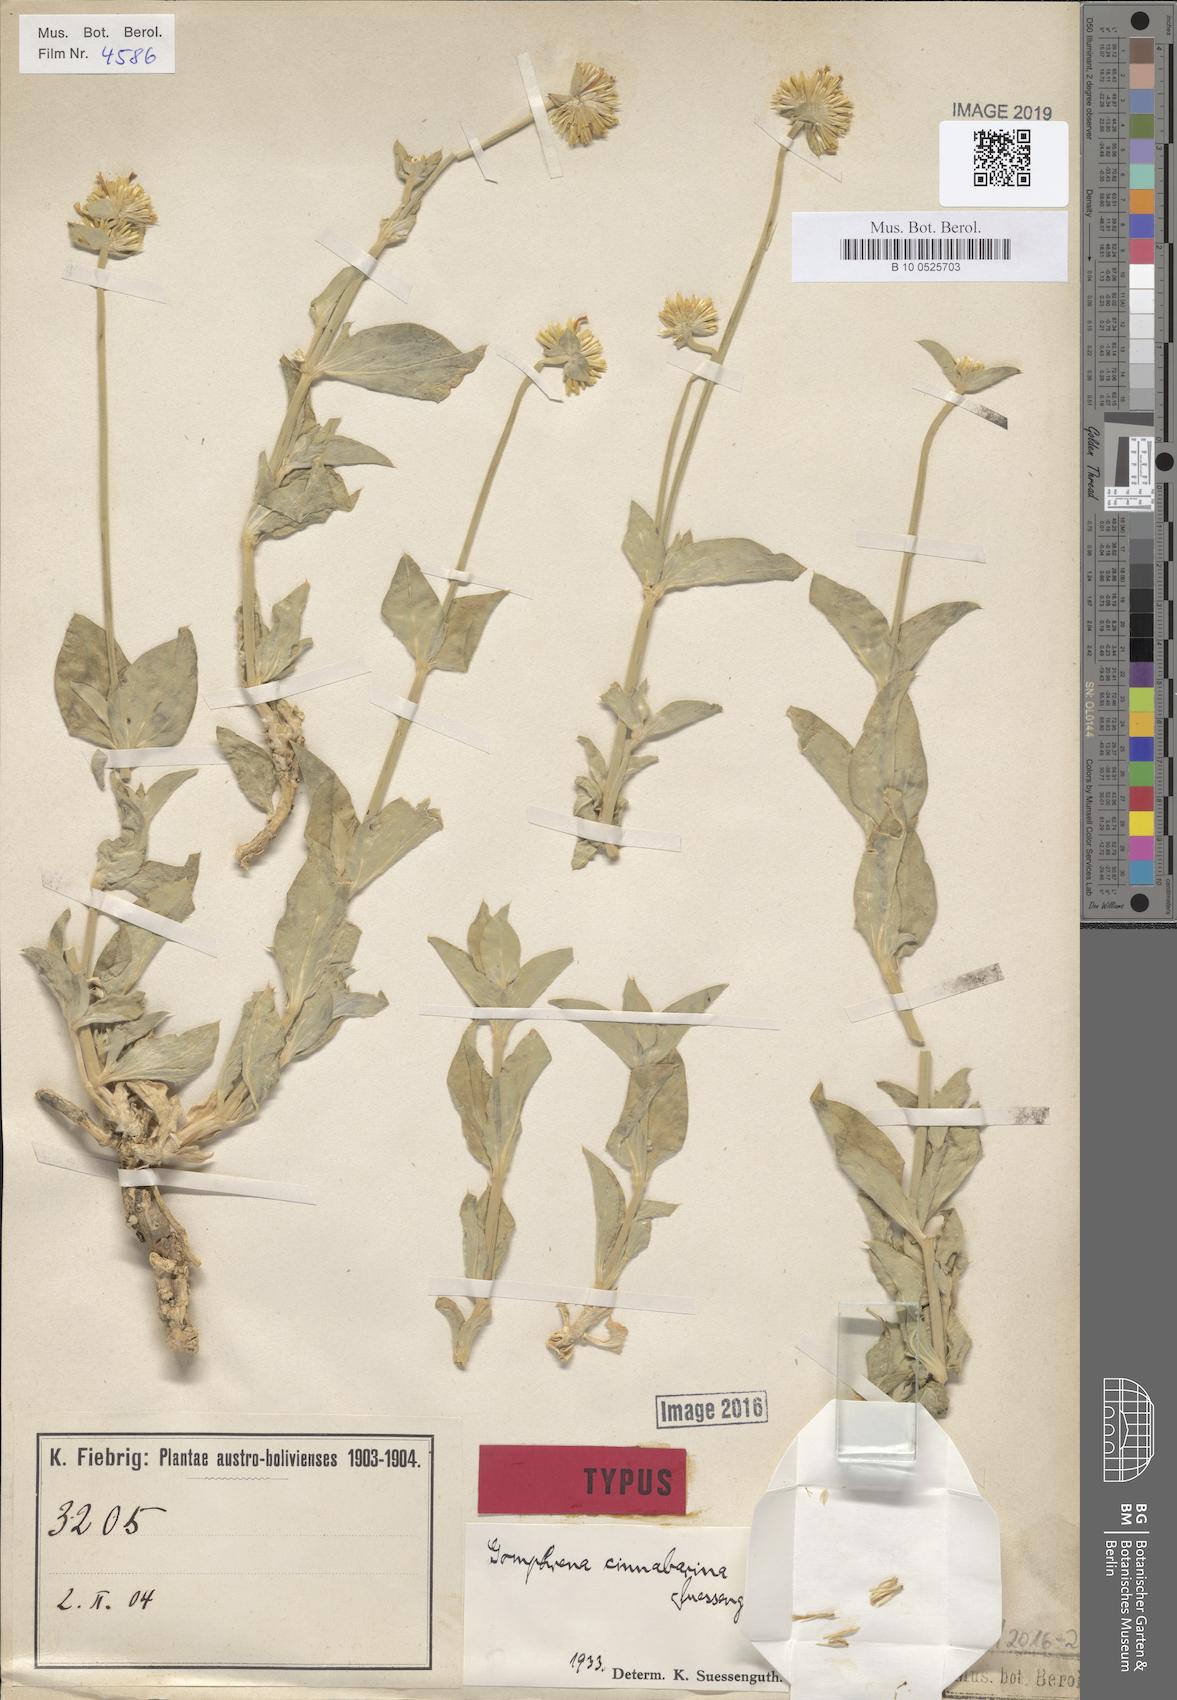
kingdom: Plantae
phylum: Tracheophyta
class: Magnoliopsida
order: Caryophyllales
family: Amaranthaceae
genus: Gomphrena
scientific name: Gomphrena
